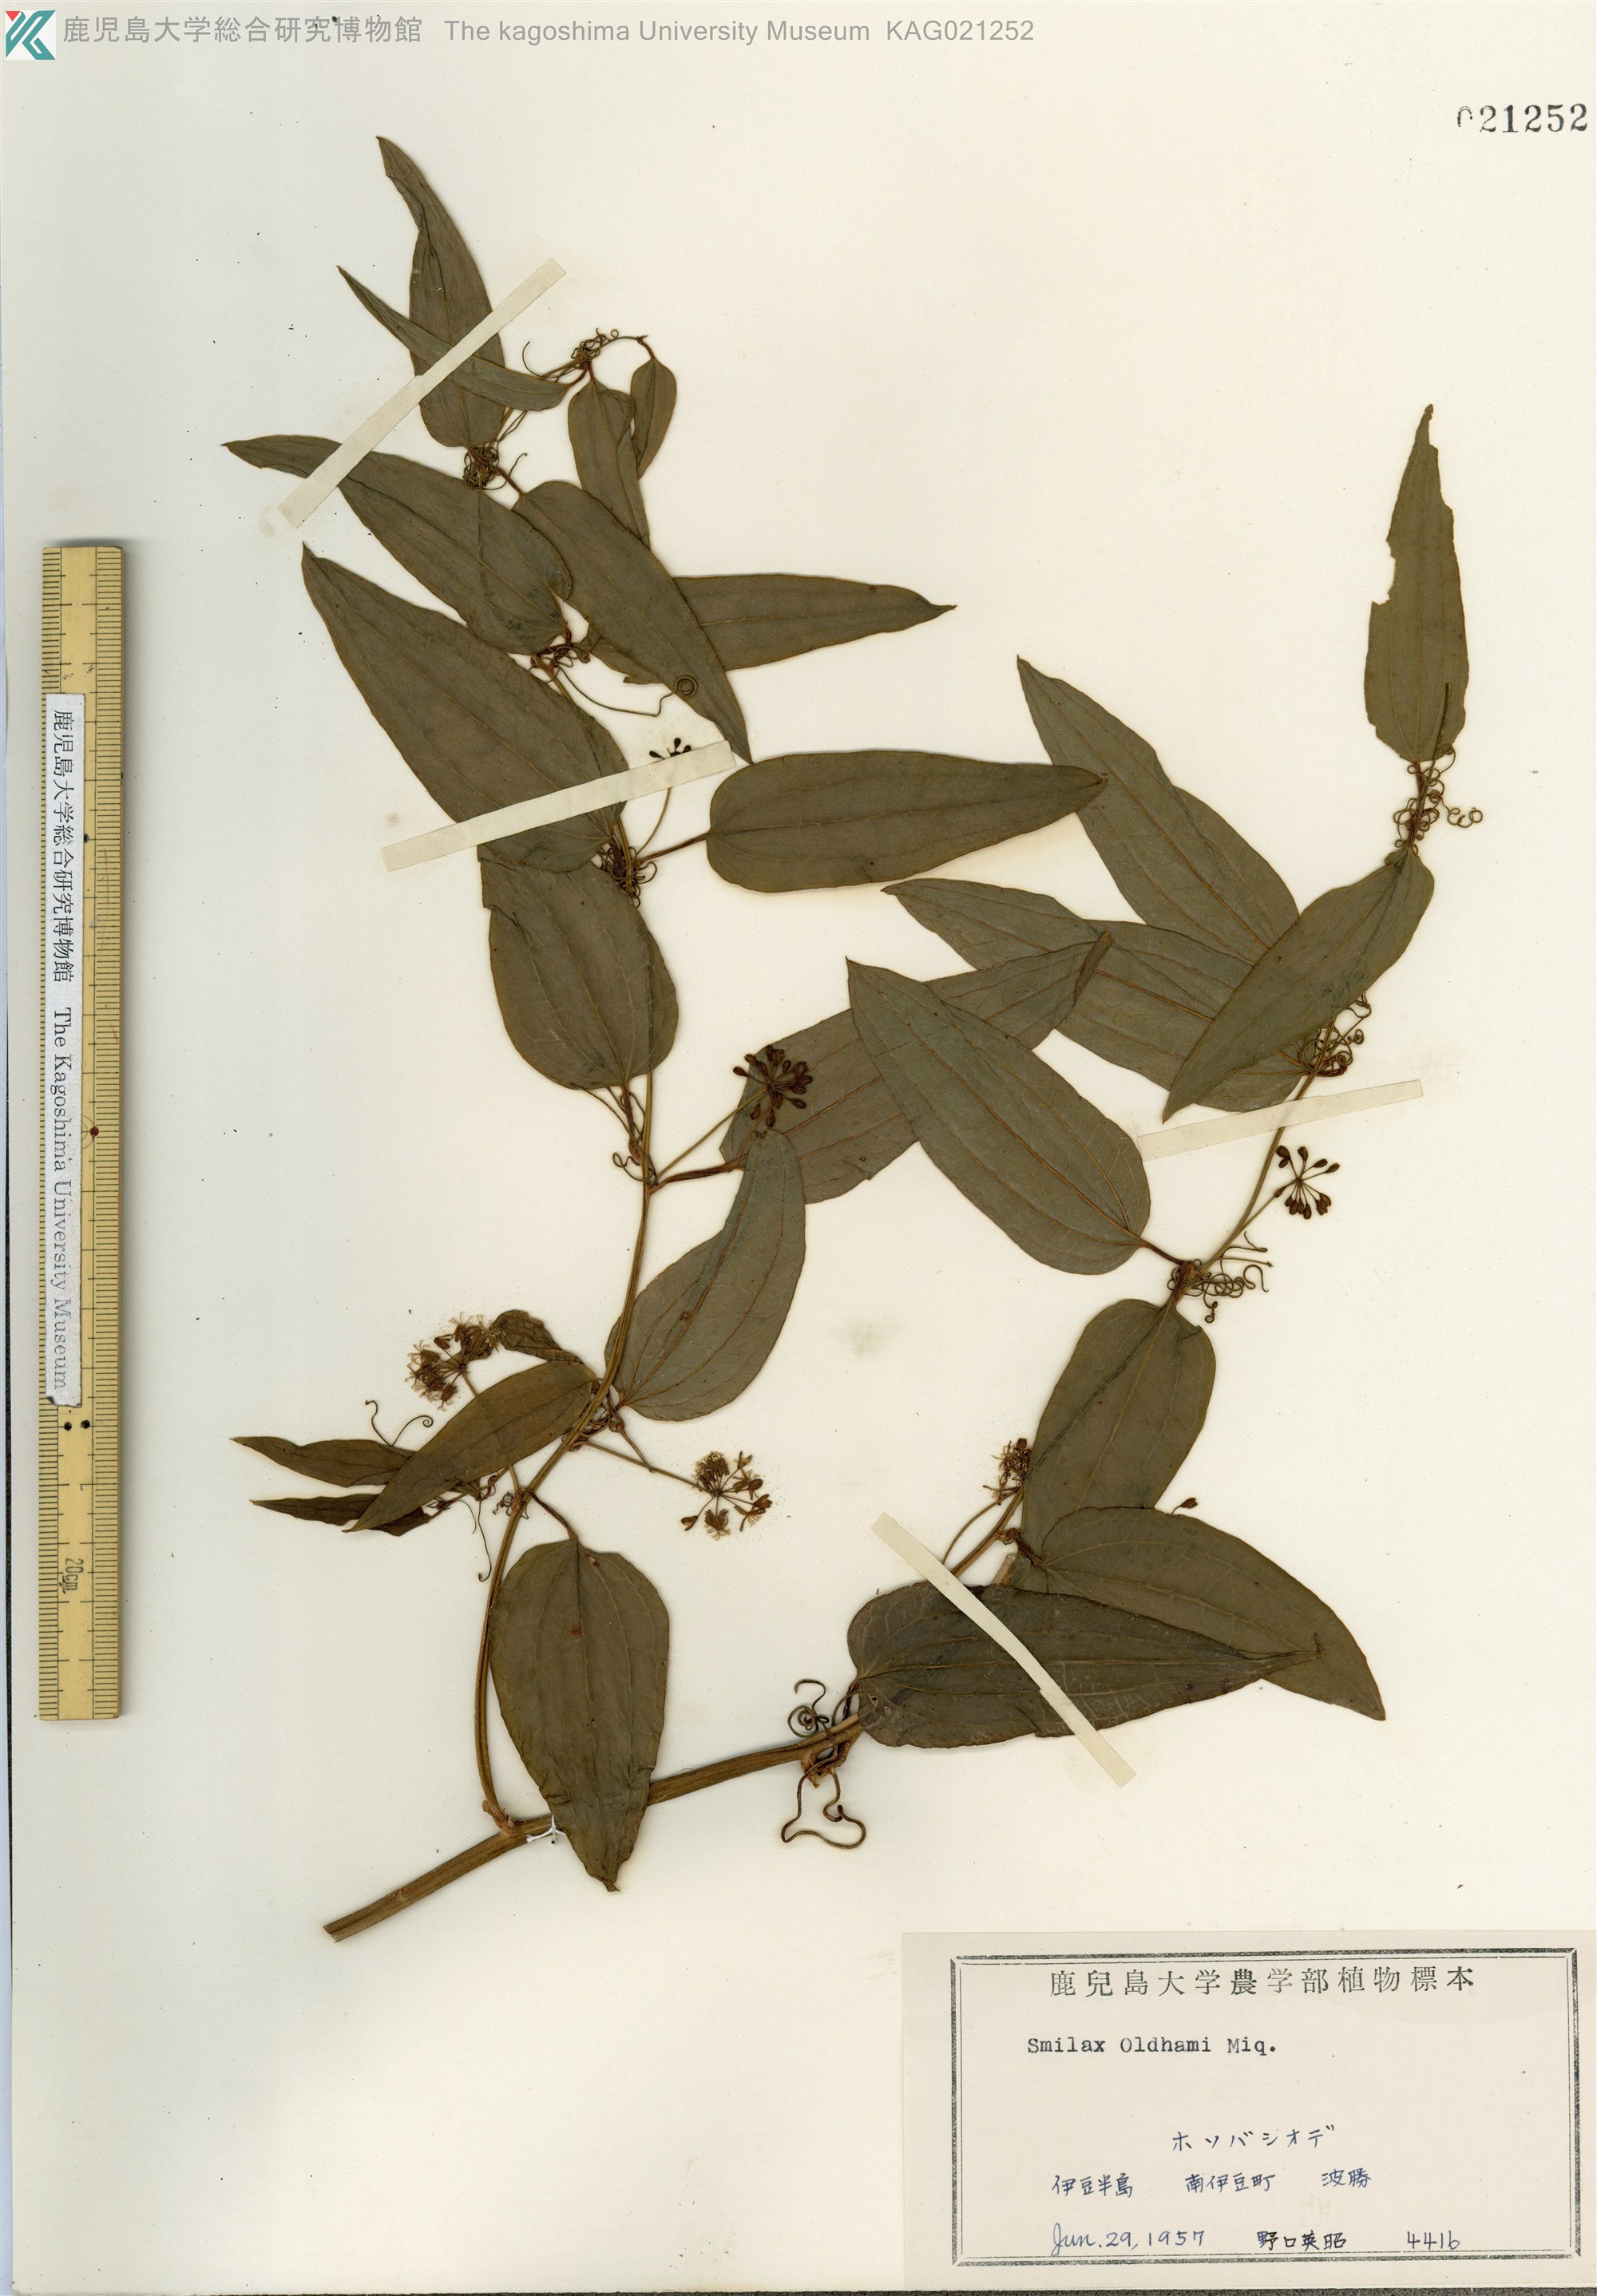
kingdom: Plantae
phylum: Tracheophyta
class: Liliopsida
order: Liliales
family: Smilacaceae
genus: Smilax
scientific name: Smilax riparia
